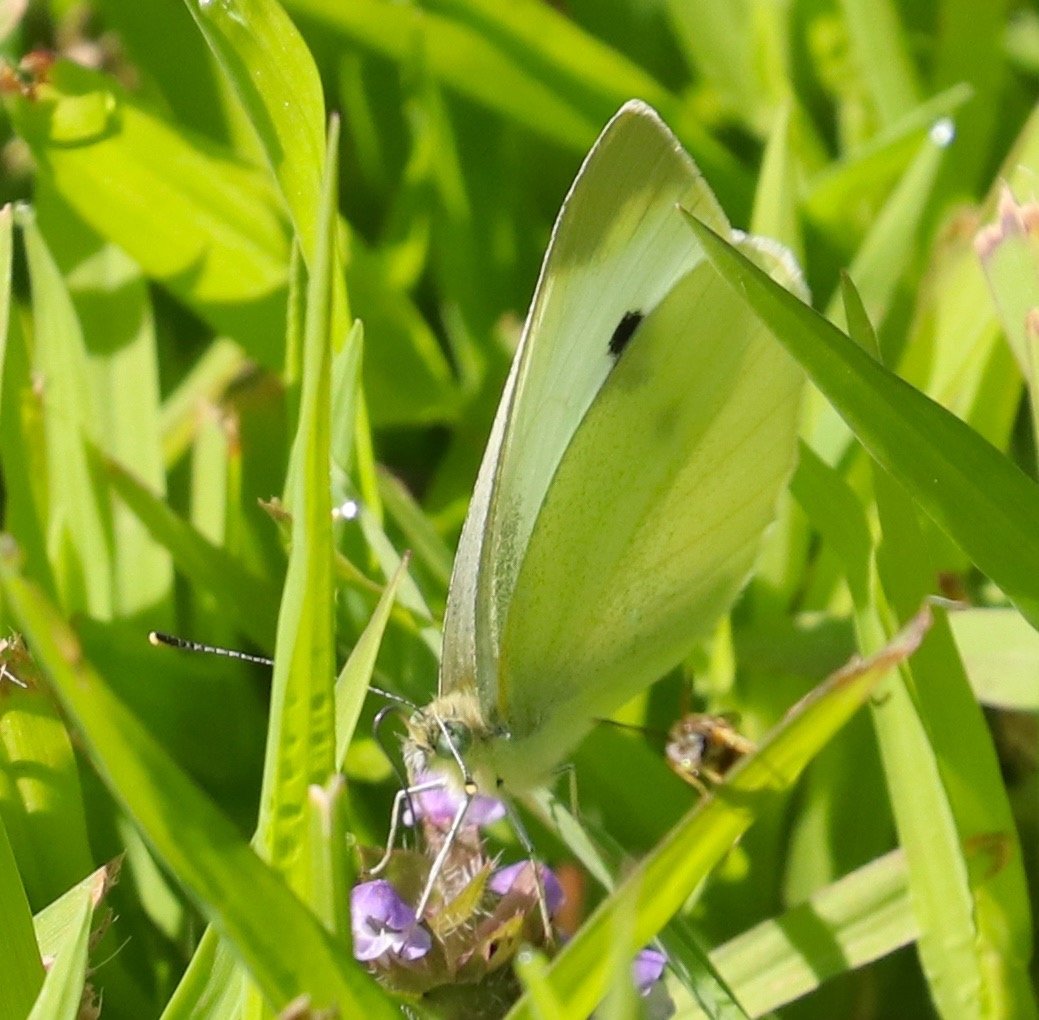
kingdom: Animalia
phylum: Arthropoda
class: Insecta
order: Lepidoptera
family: Pieridae
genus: Pieris
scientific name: Pieris rapae
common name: Cabbage White
